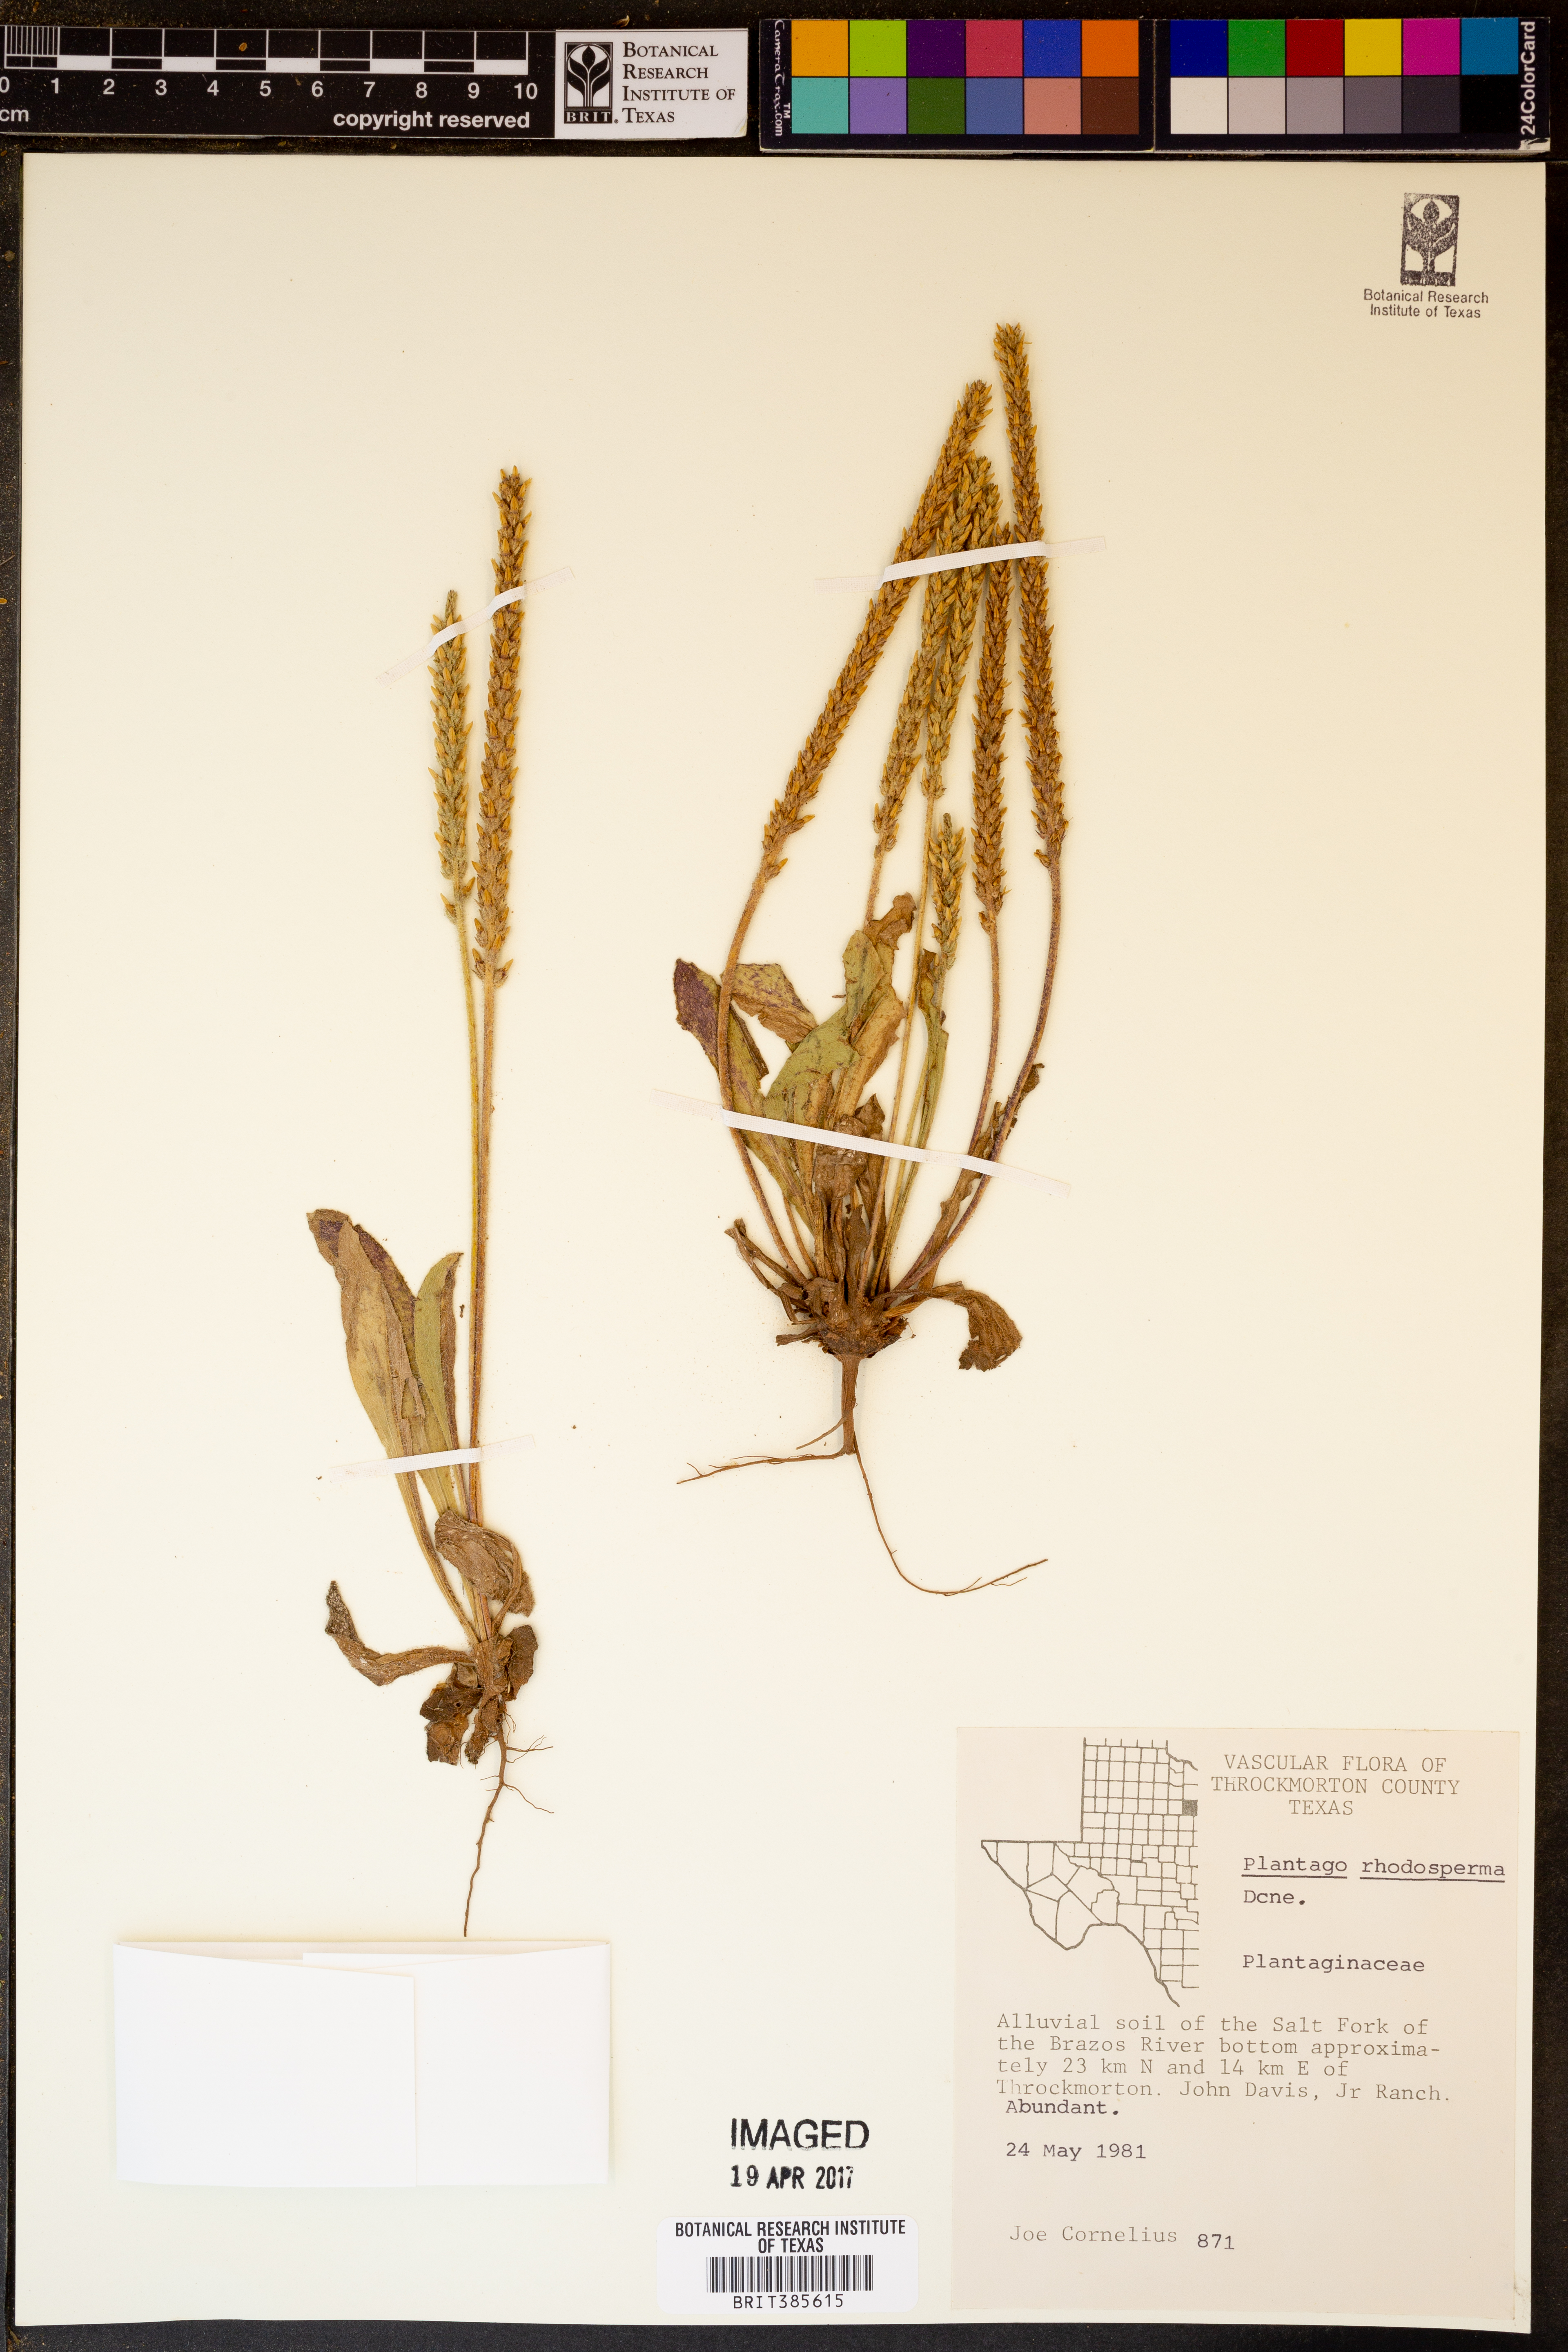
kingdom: Plantae
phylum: Tracheophyta
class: Magnoliopsida
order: Lamiales
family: Plantaginaceae
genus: Plantago
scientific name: Plantago rhodosperma
